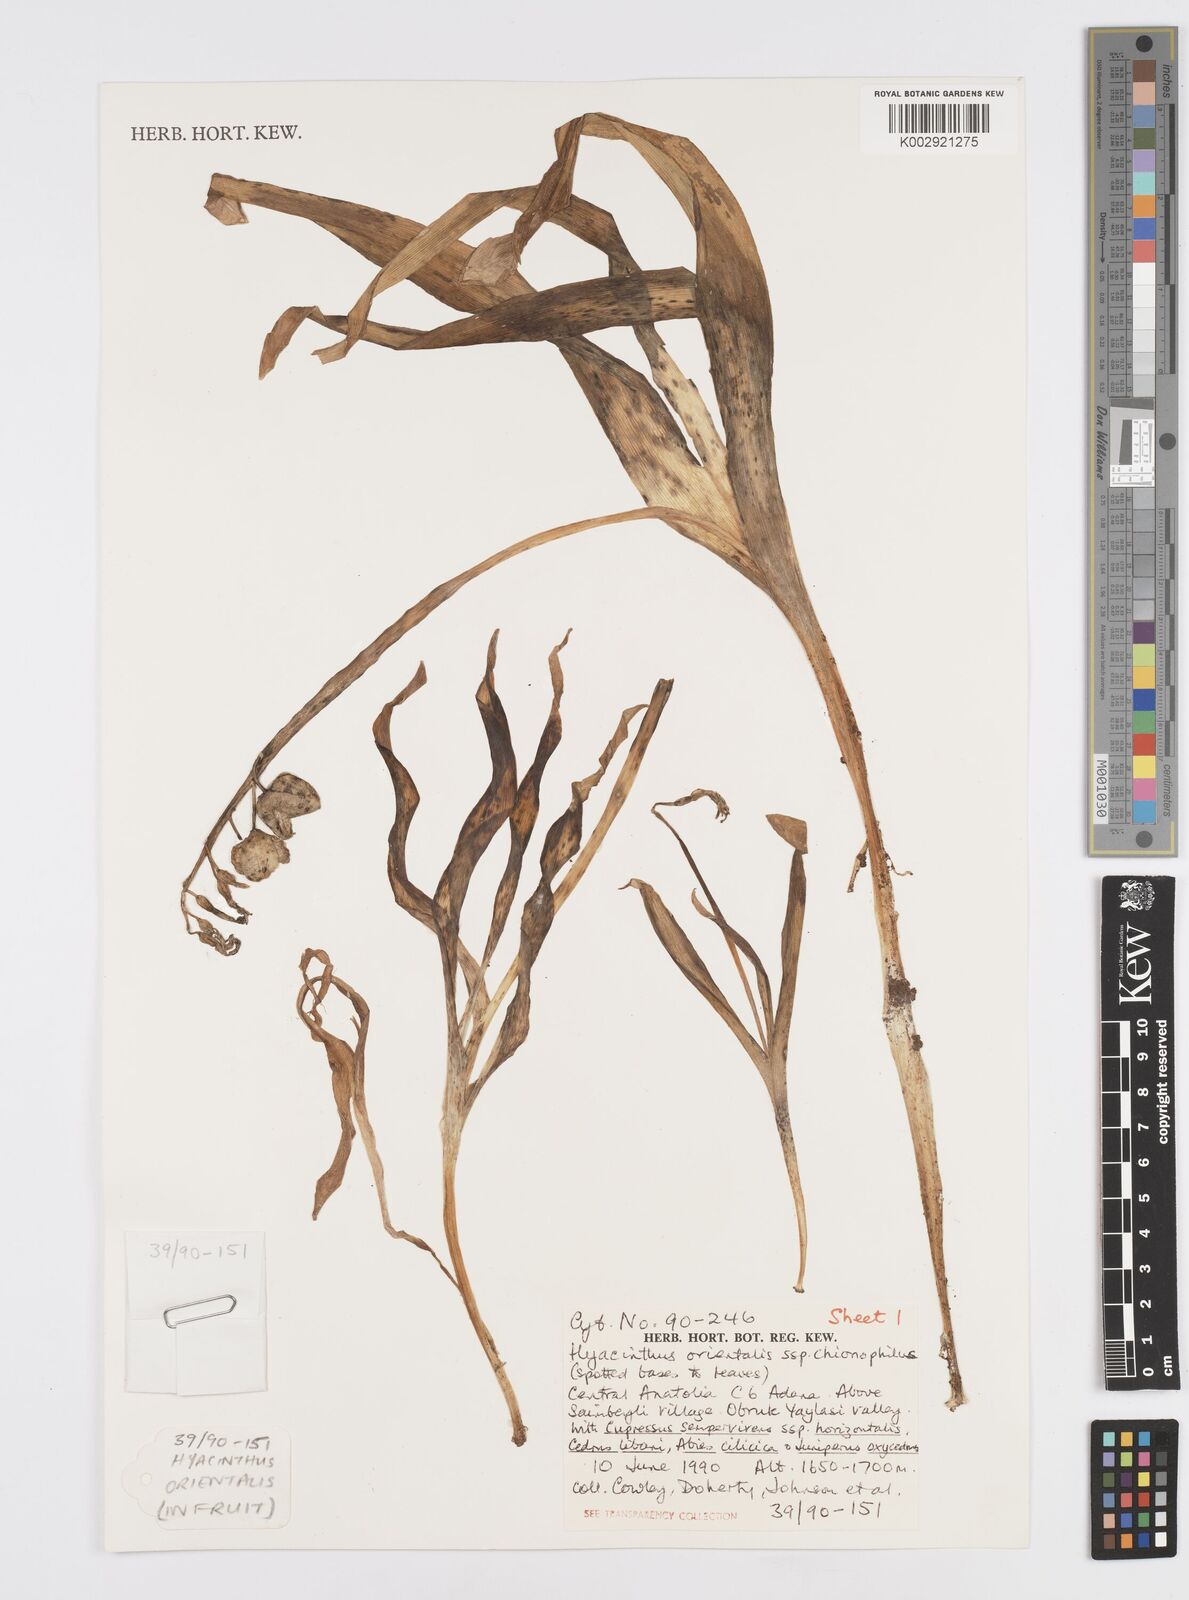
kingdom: Plantae
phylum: Tracheophyta
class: Liliopsida
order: Asparagales
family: Asparagaceae
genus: Hyacinthus
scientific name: Hyacinthus orientalis
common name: Hyacinth
